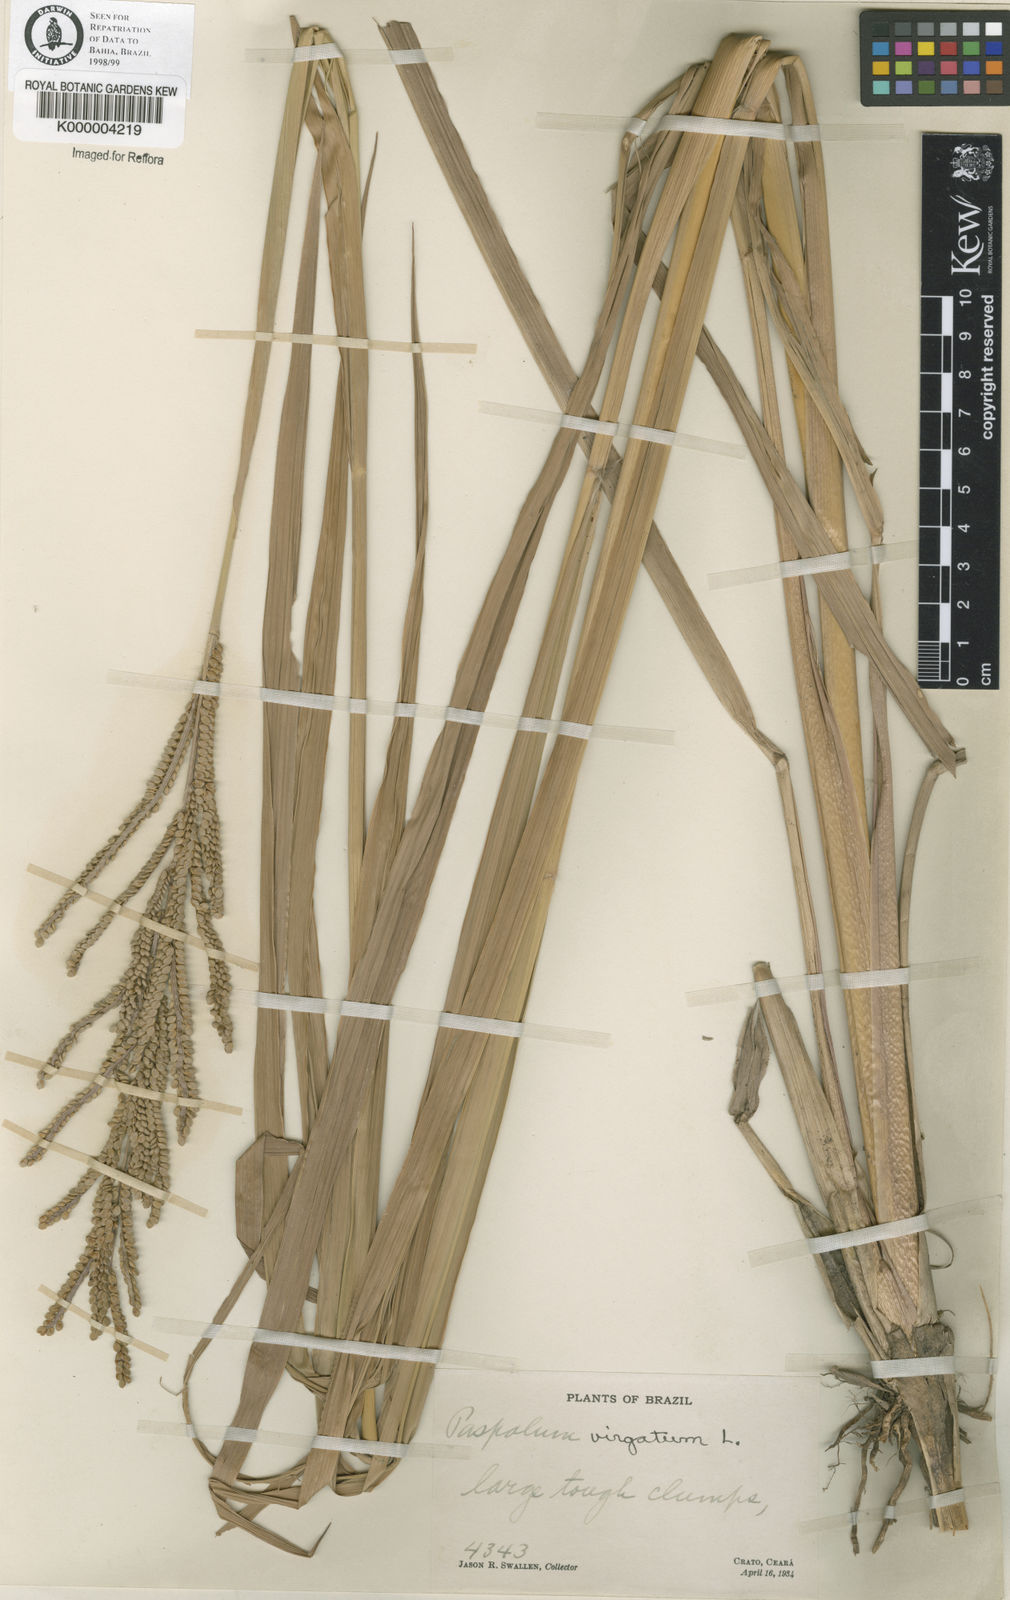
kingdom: Plantae
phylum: Tracheophyta
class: Liliopsida
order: Poales
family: Poaceae
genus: Paspalum
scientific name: Paspalum virgatum
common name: Talquezal
